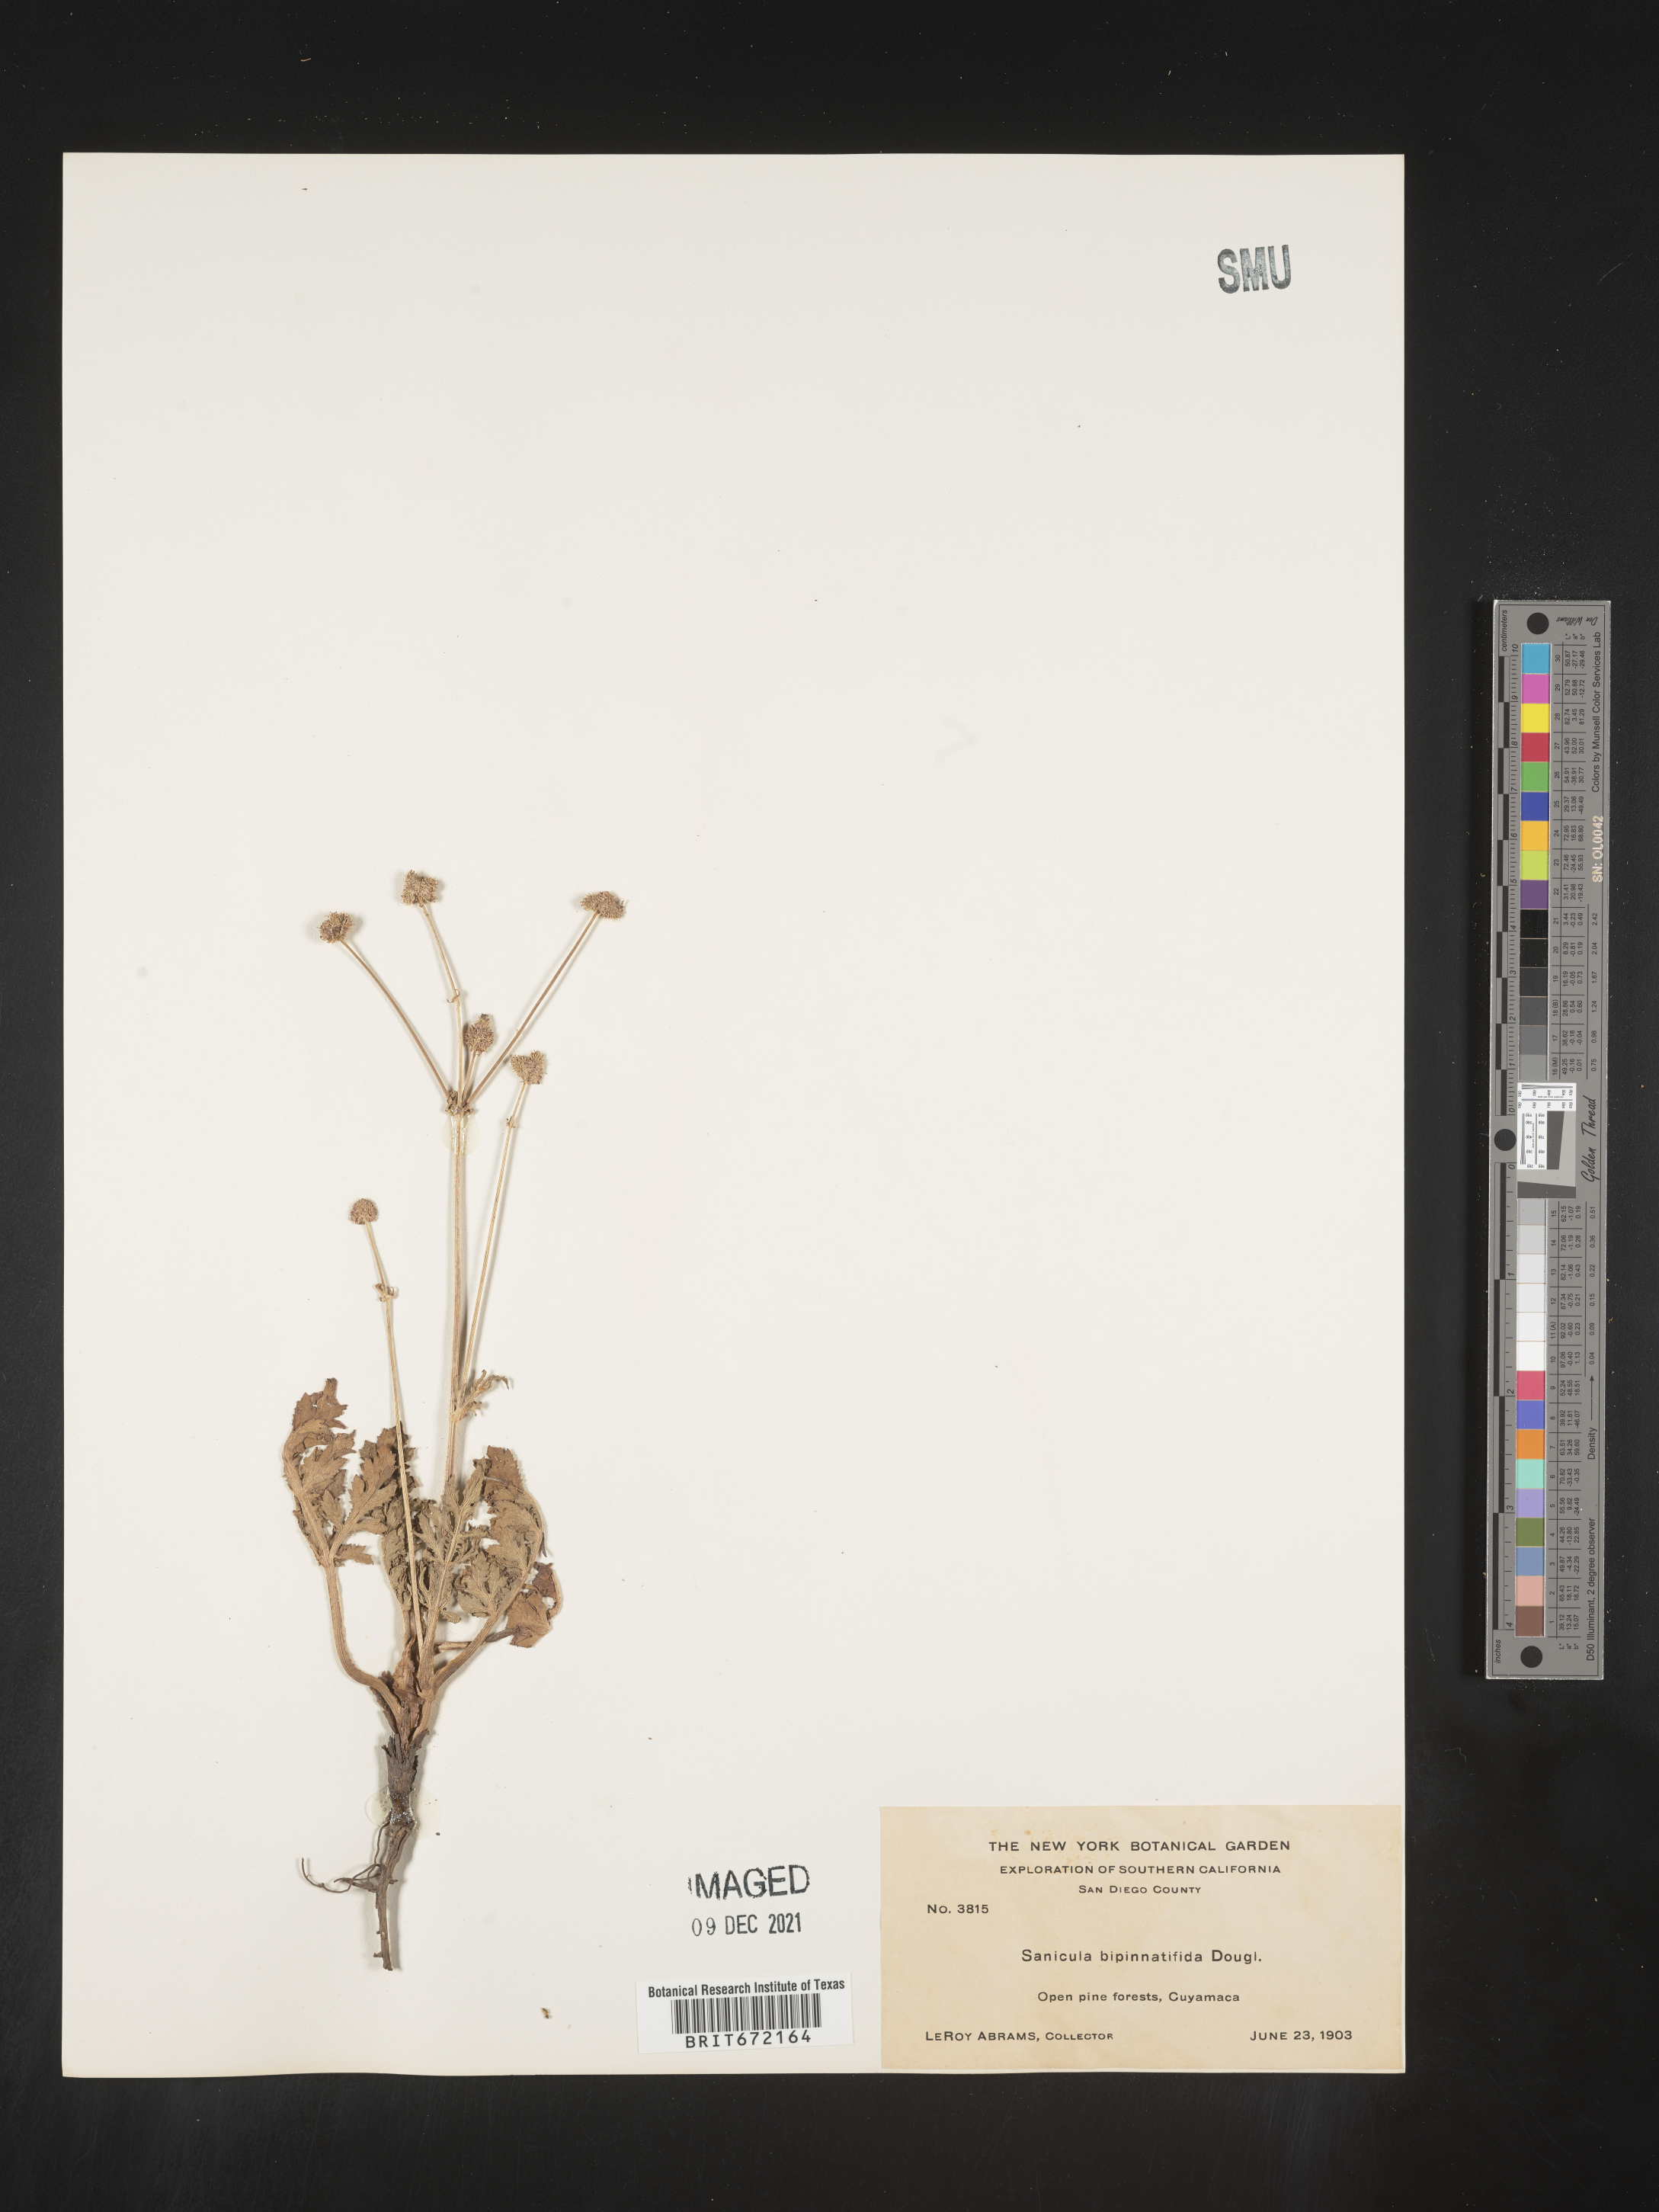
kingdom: Plantae
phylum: Tracheophyta
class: Magnoliopsida
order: Apiales
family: Apiaceae
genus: Sanicula
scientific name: Sanicula
